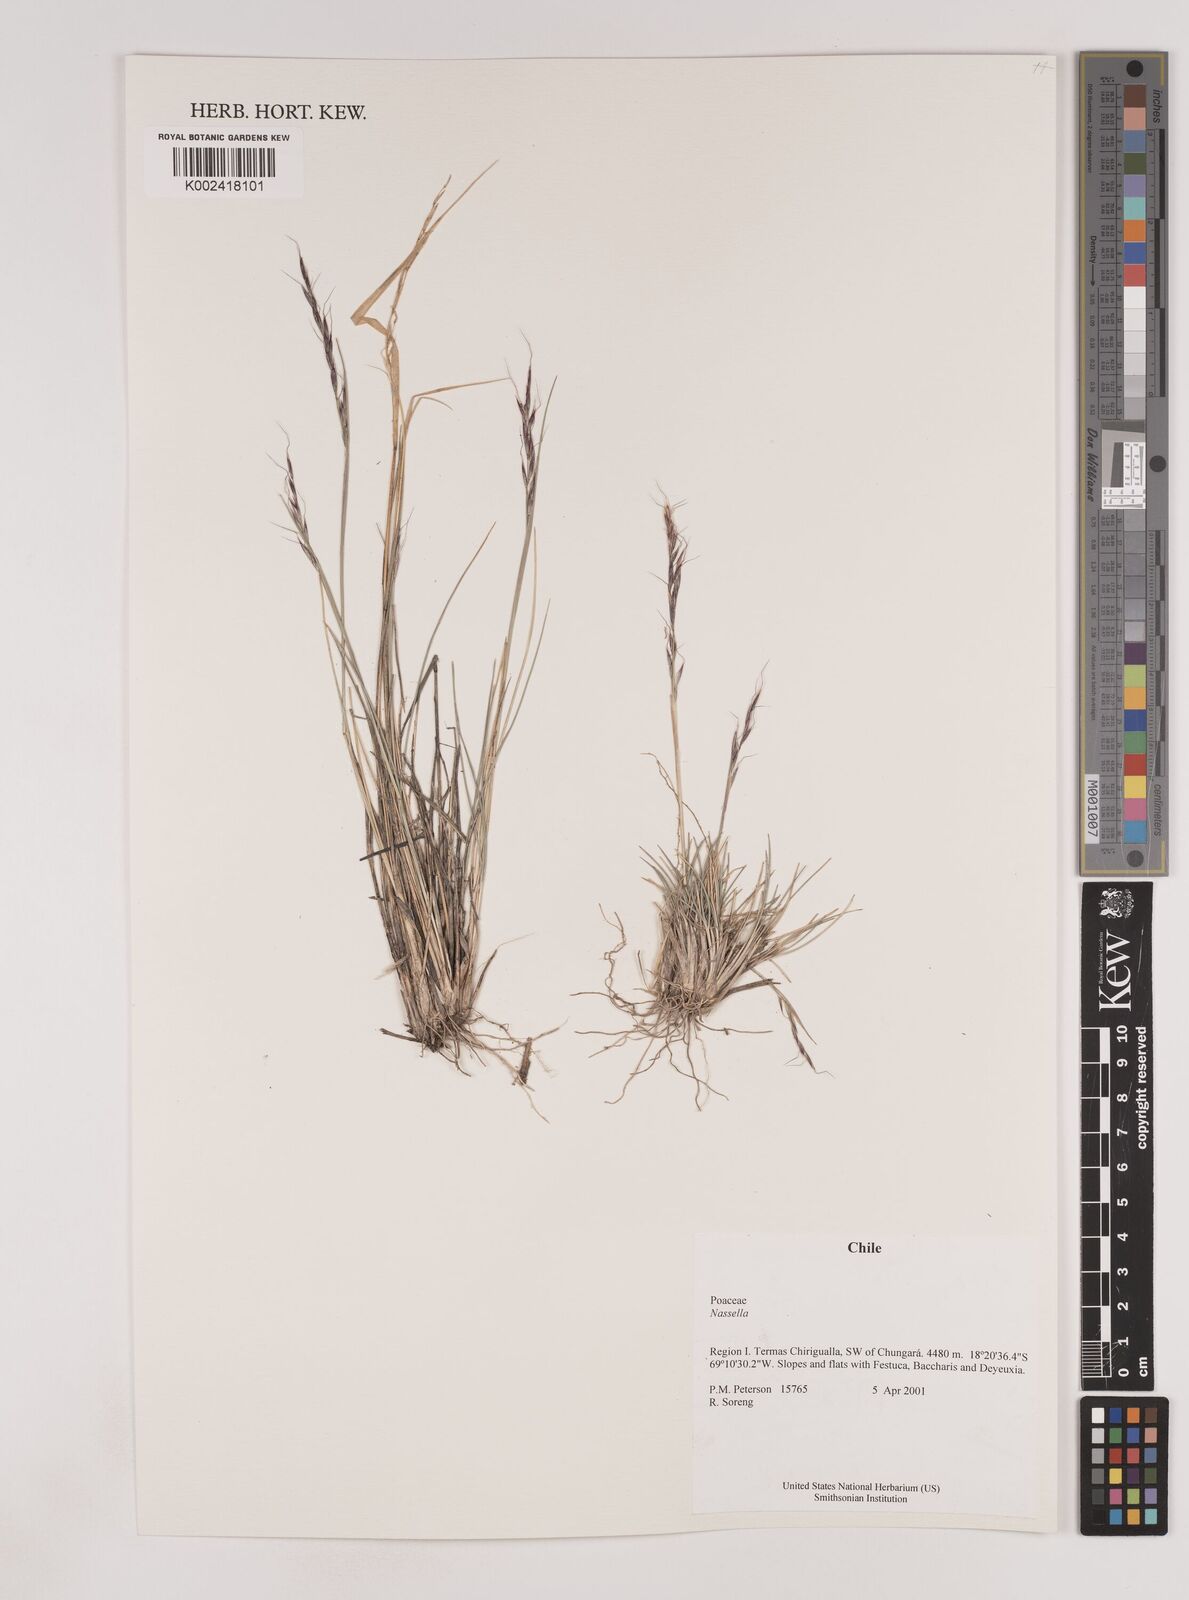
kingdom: Plantae
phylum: Tracheophyta
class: Liliopsida
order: Poales
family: Poaceae
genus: Nassella
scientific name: Nassella
